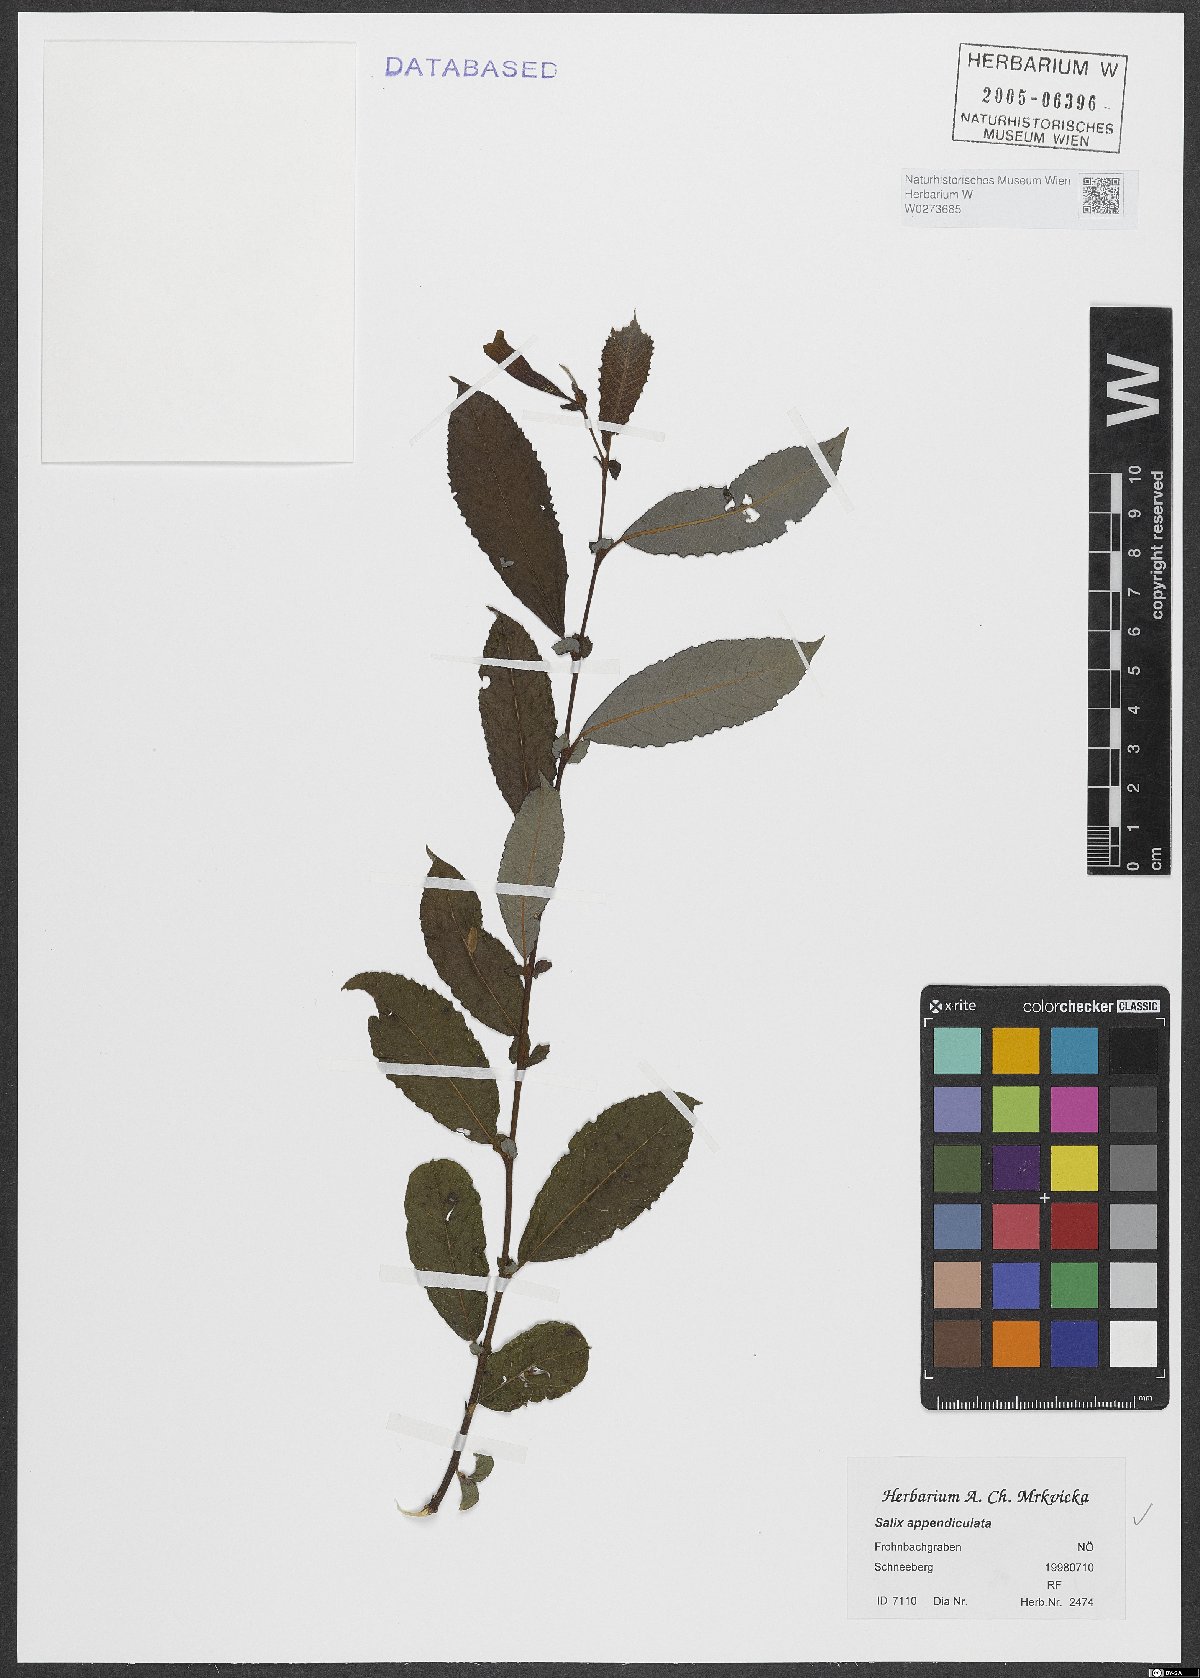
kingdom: Plantae
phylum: Tracheophyta
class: Magnoliopsida
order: Malpighiales
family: Salicaceae
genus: Salix
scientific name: Salix appendiculata
